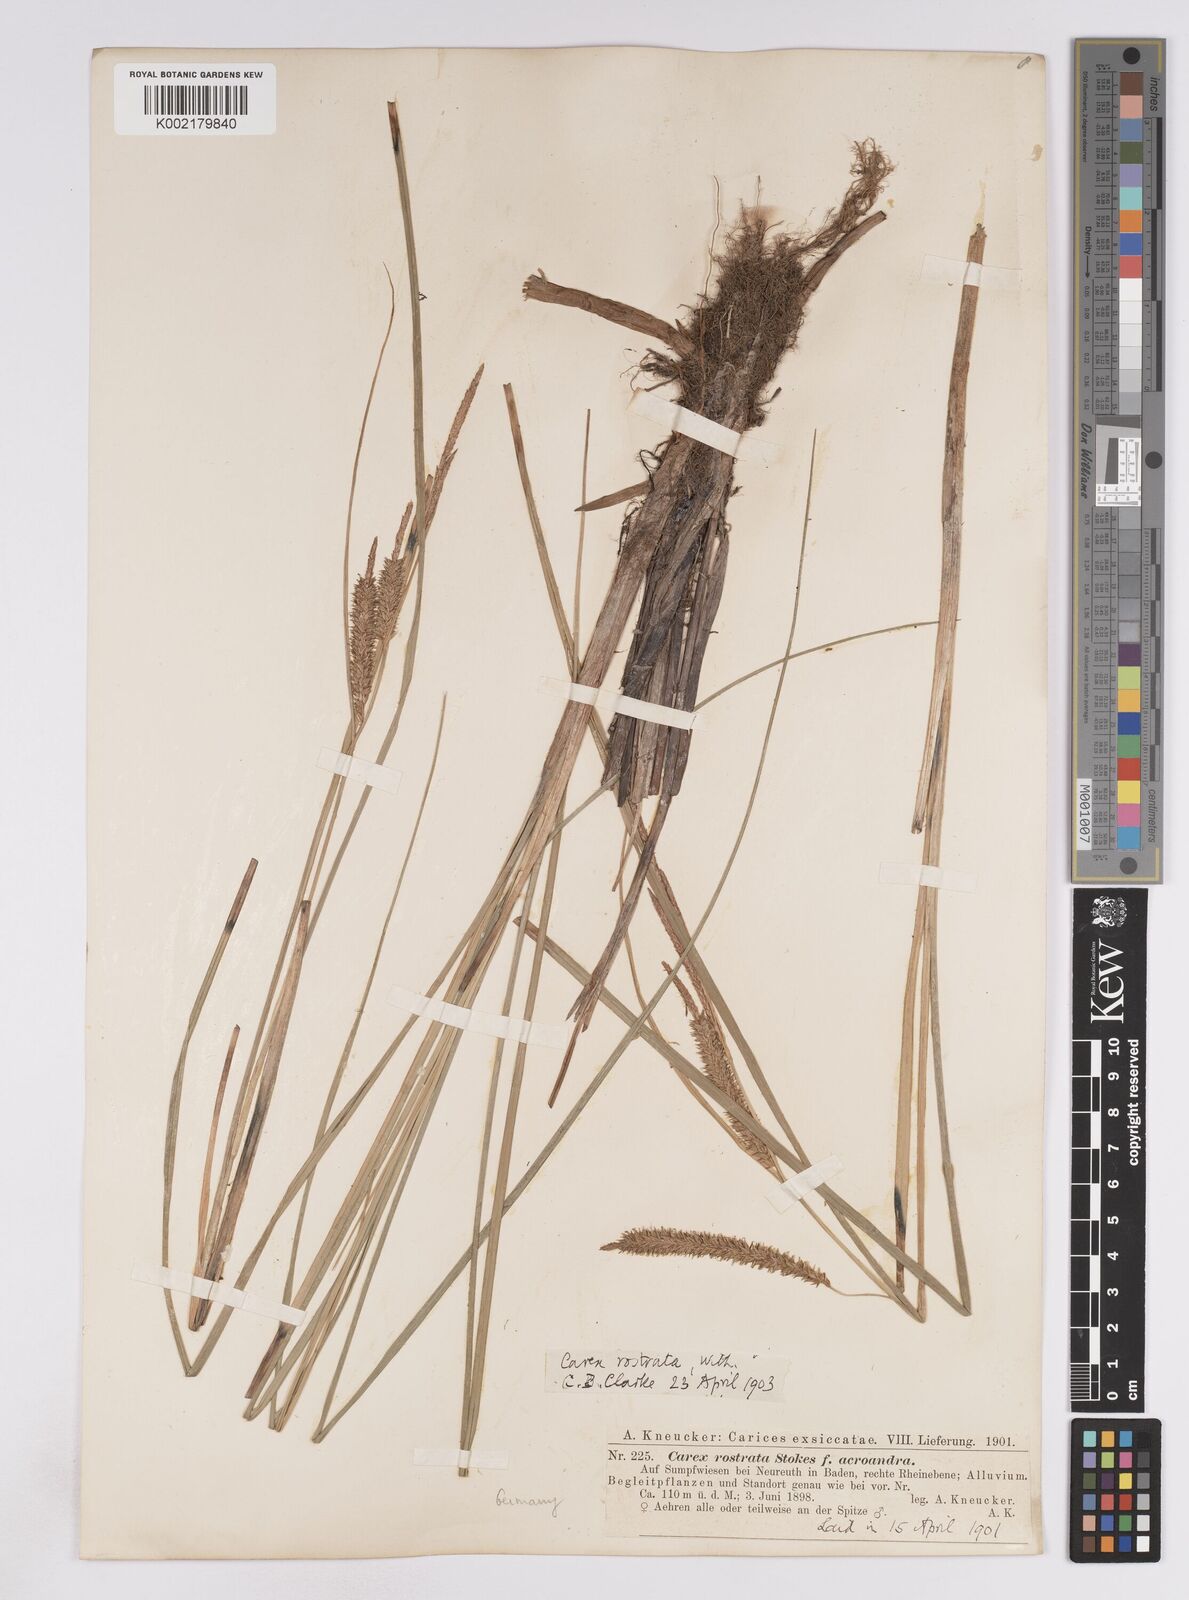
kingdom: Plantae
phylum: Tracheophyta
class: Liliopsida
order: Poales
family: Cyperaceae
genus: Carex
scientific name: Carex rostrata
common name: Bottle sedge
